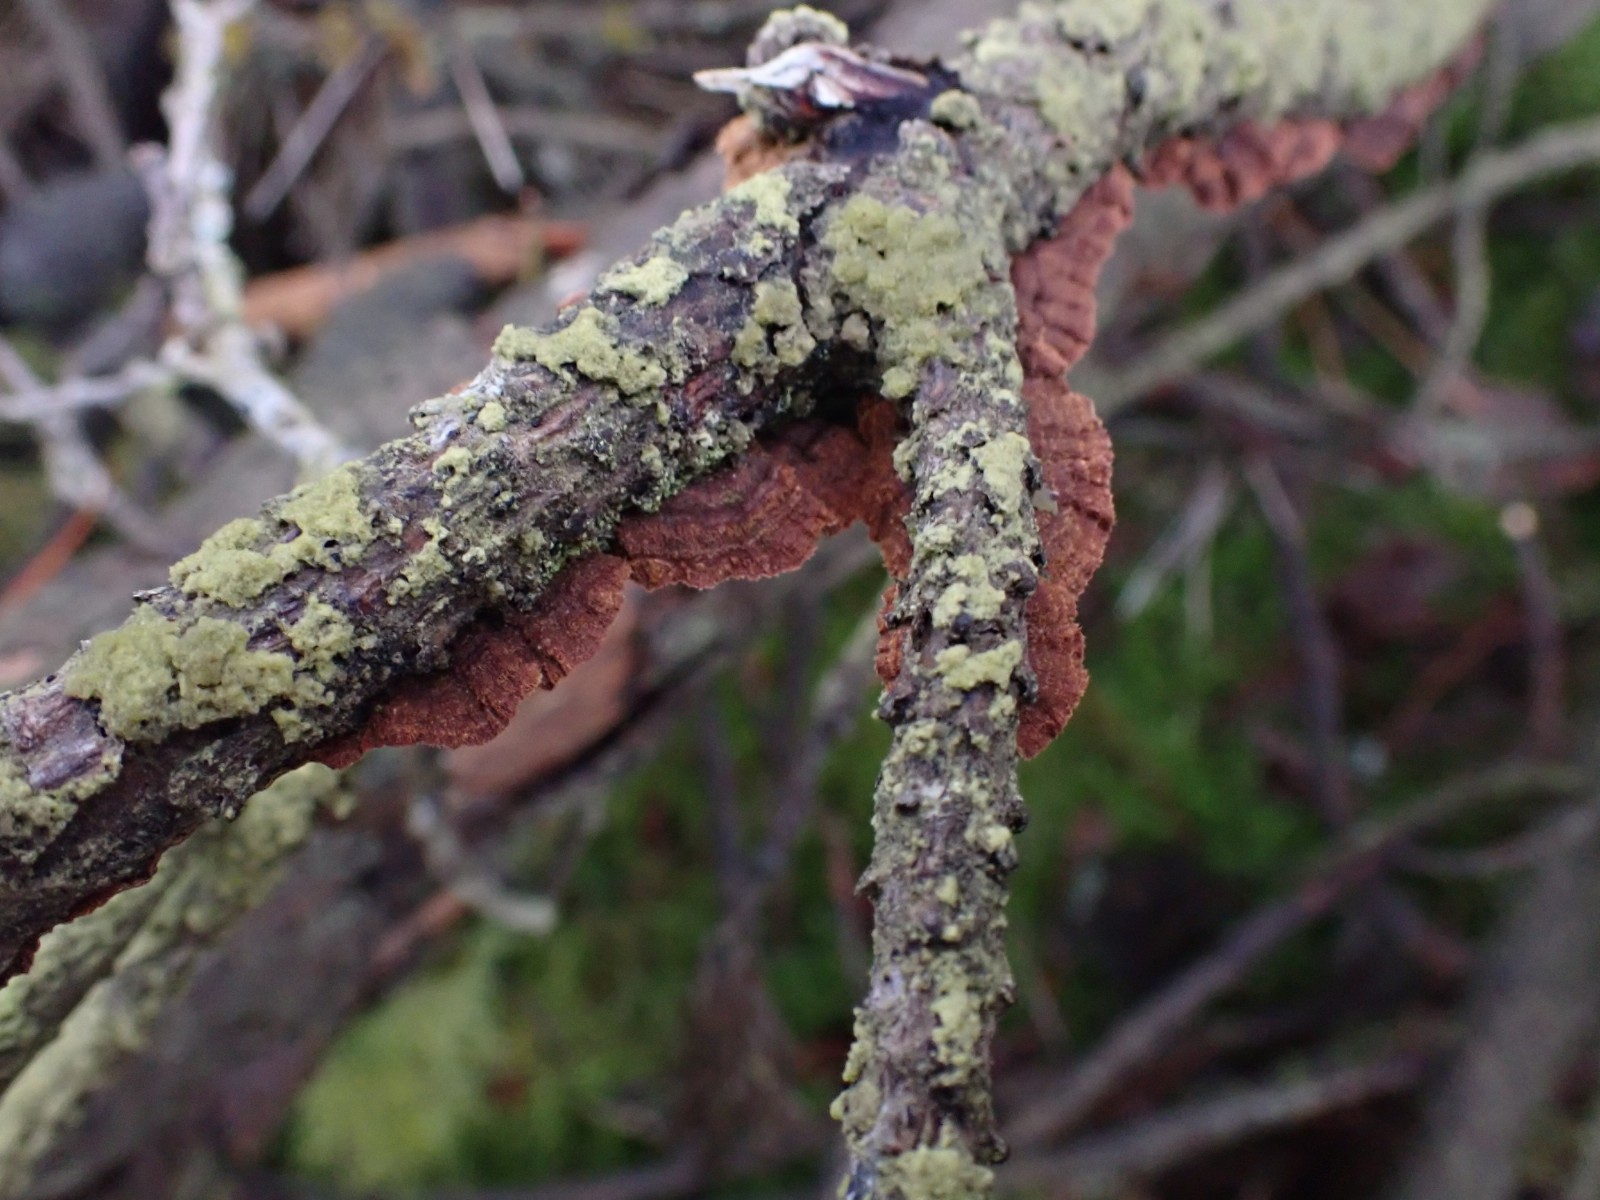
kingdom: Fungi
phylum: Basidiomycota
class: Agaricomycetes
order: Hymenochaetales
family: Hymenochaetaceae
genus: Hydnoporia
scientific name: Hydnoporia tabacina
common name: tobaksbrun ruslædersvamp
